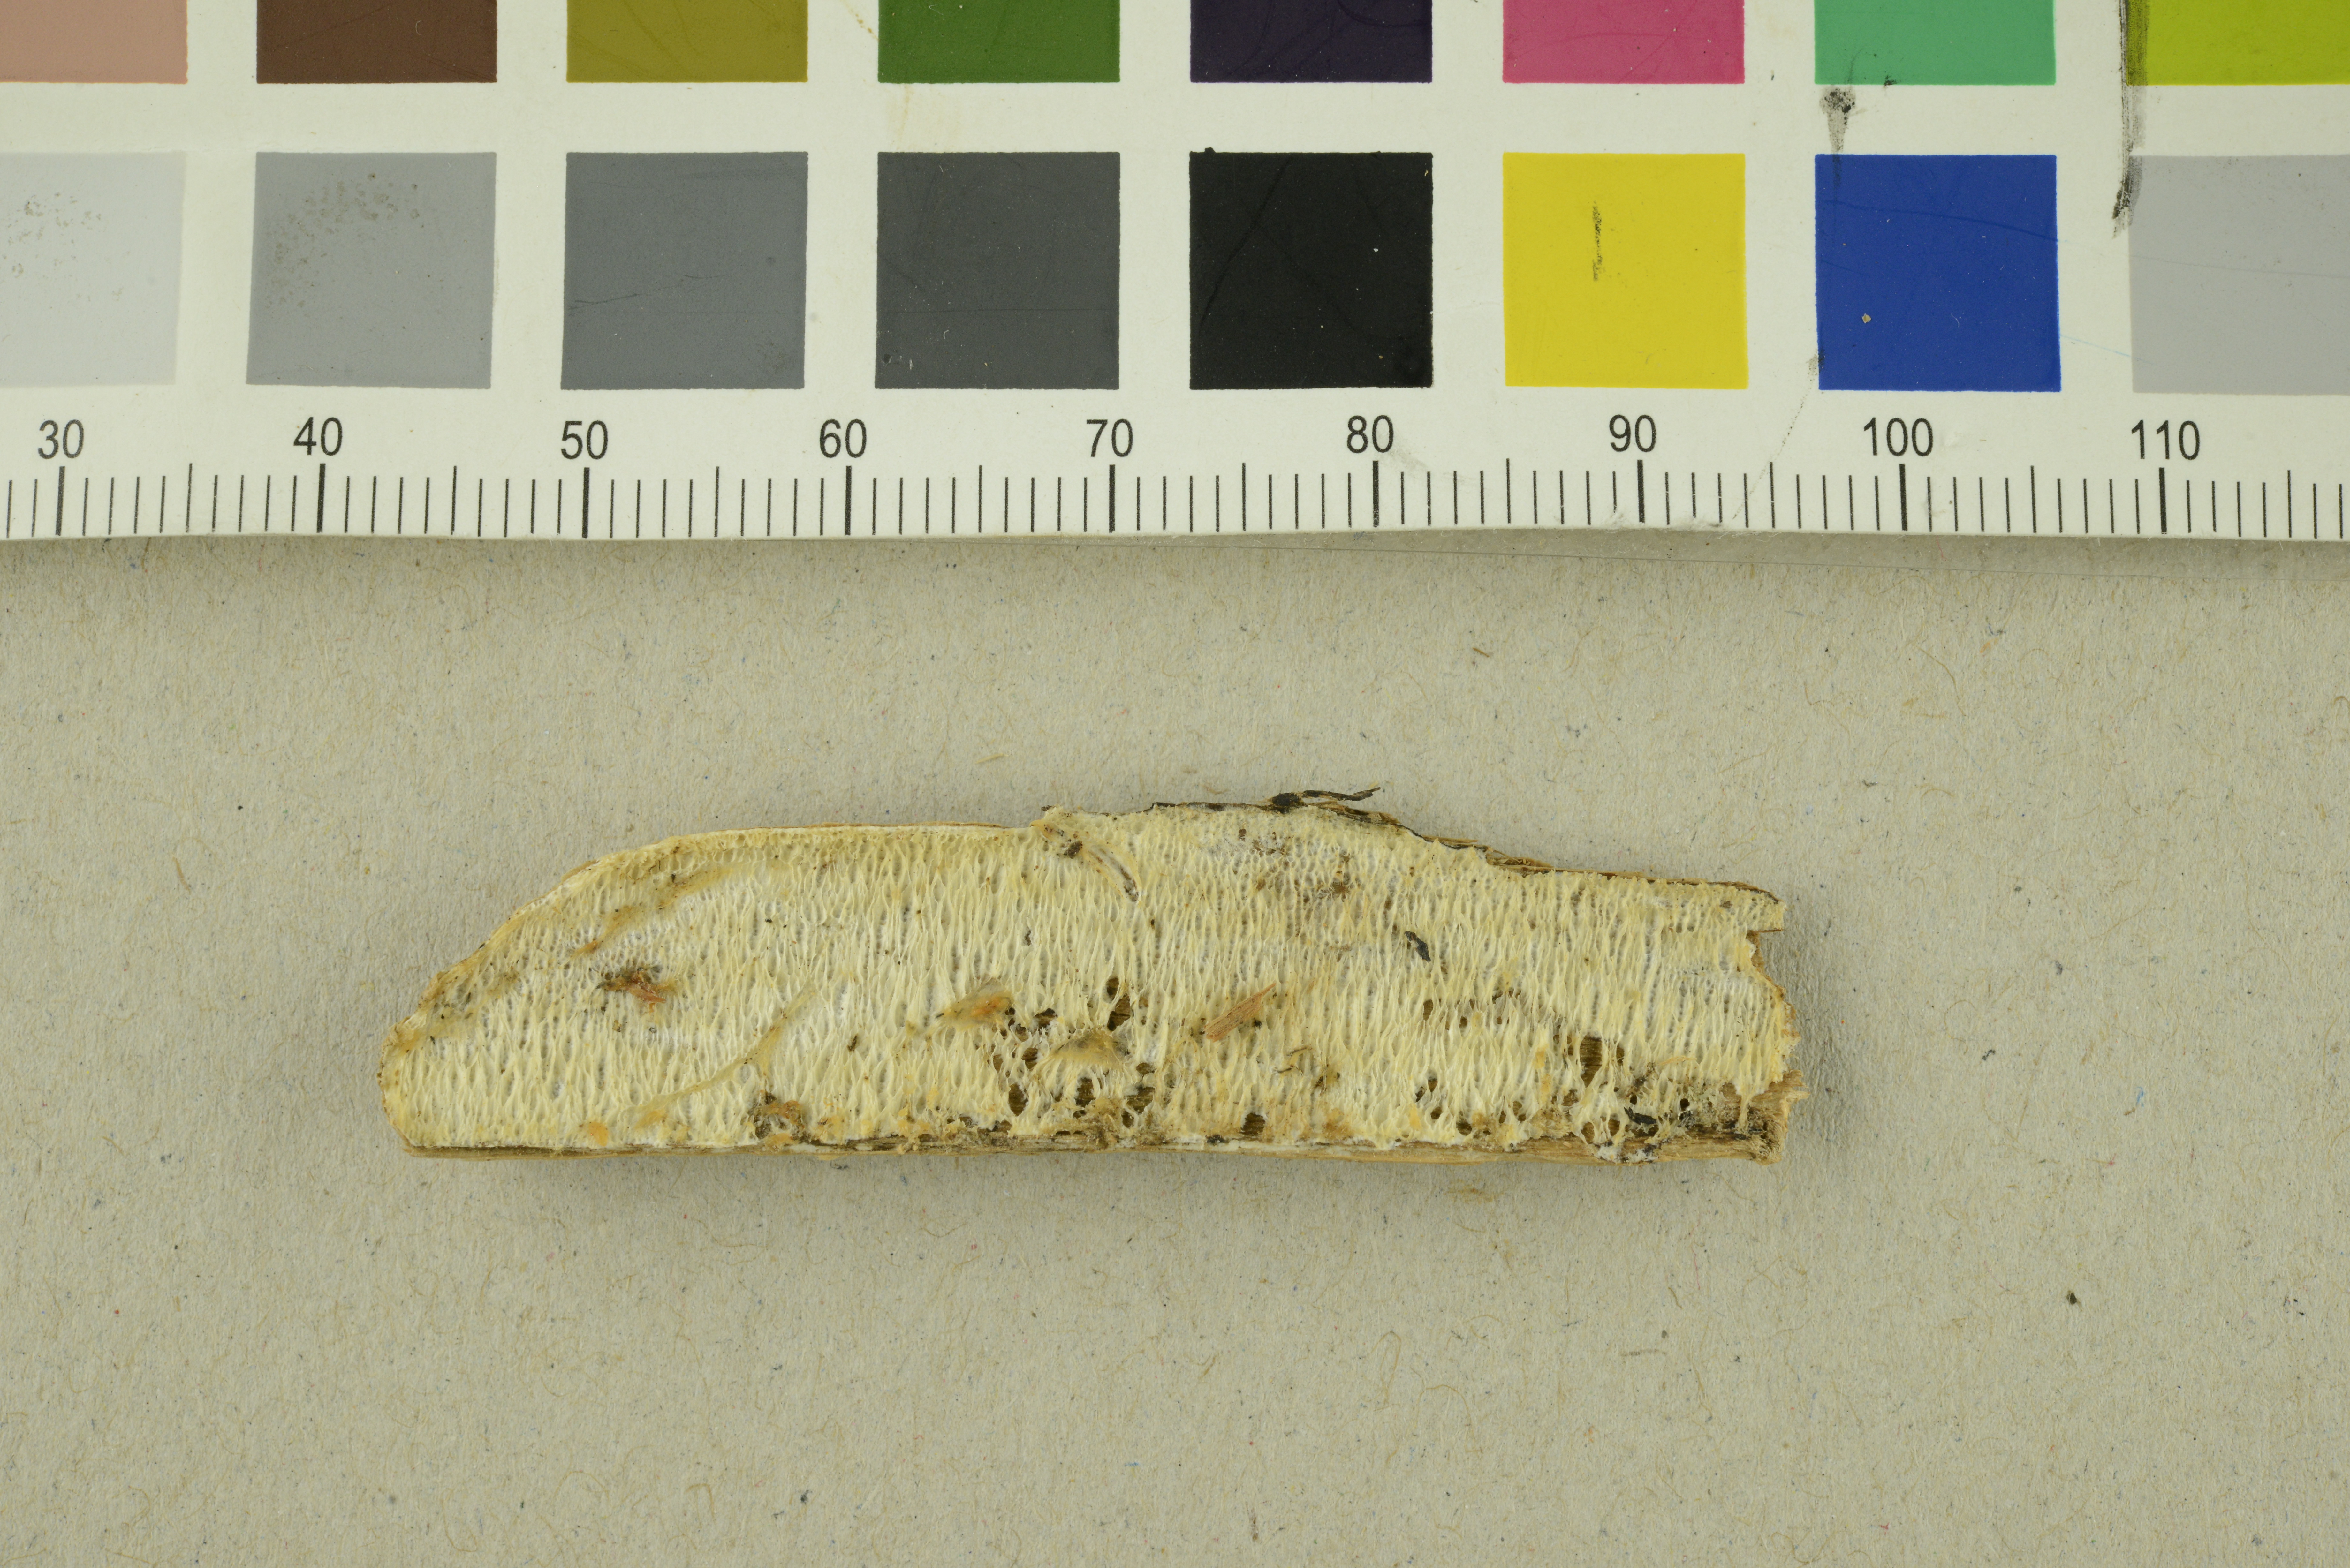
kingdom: Fungi
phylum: Basidiomycota
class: Agaricomycetes
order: Polyporales
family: Incrustoporiaceae
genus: Skeletocutis
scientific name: Skeletocutis exilis
